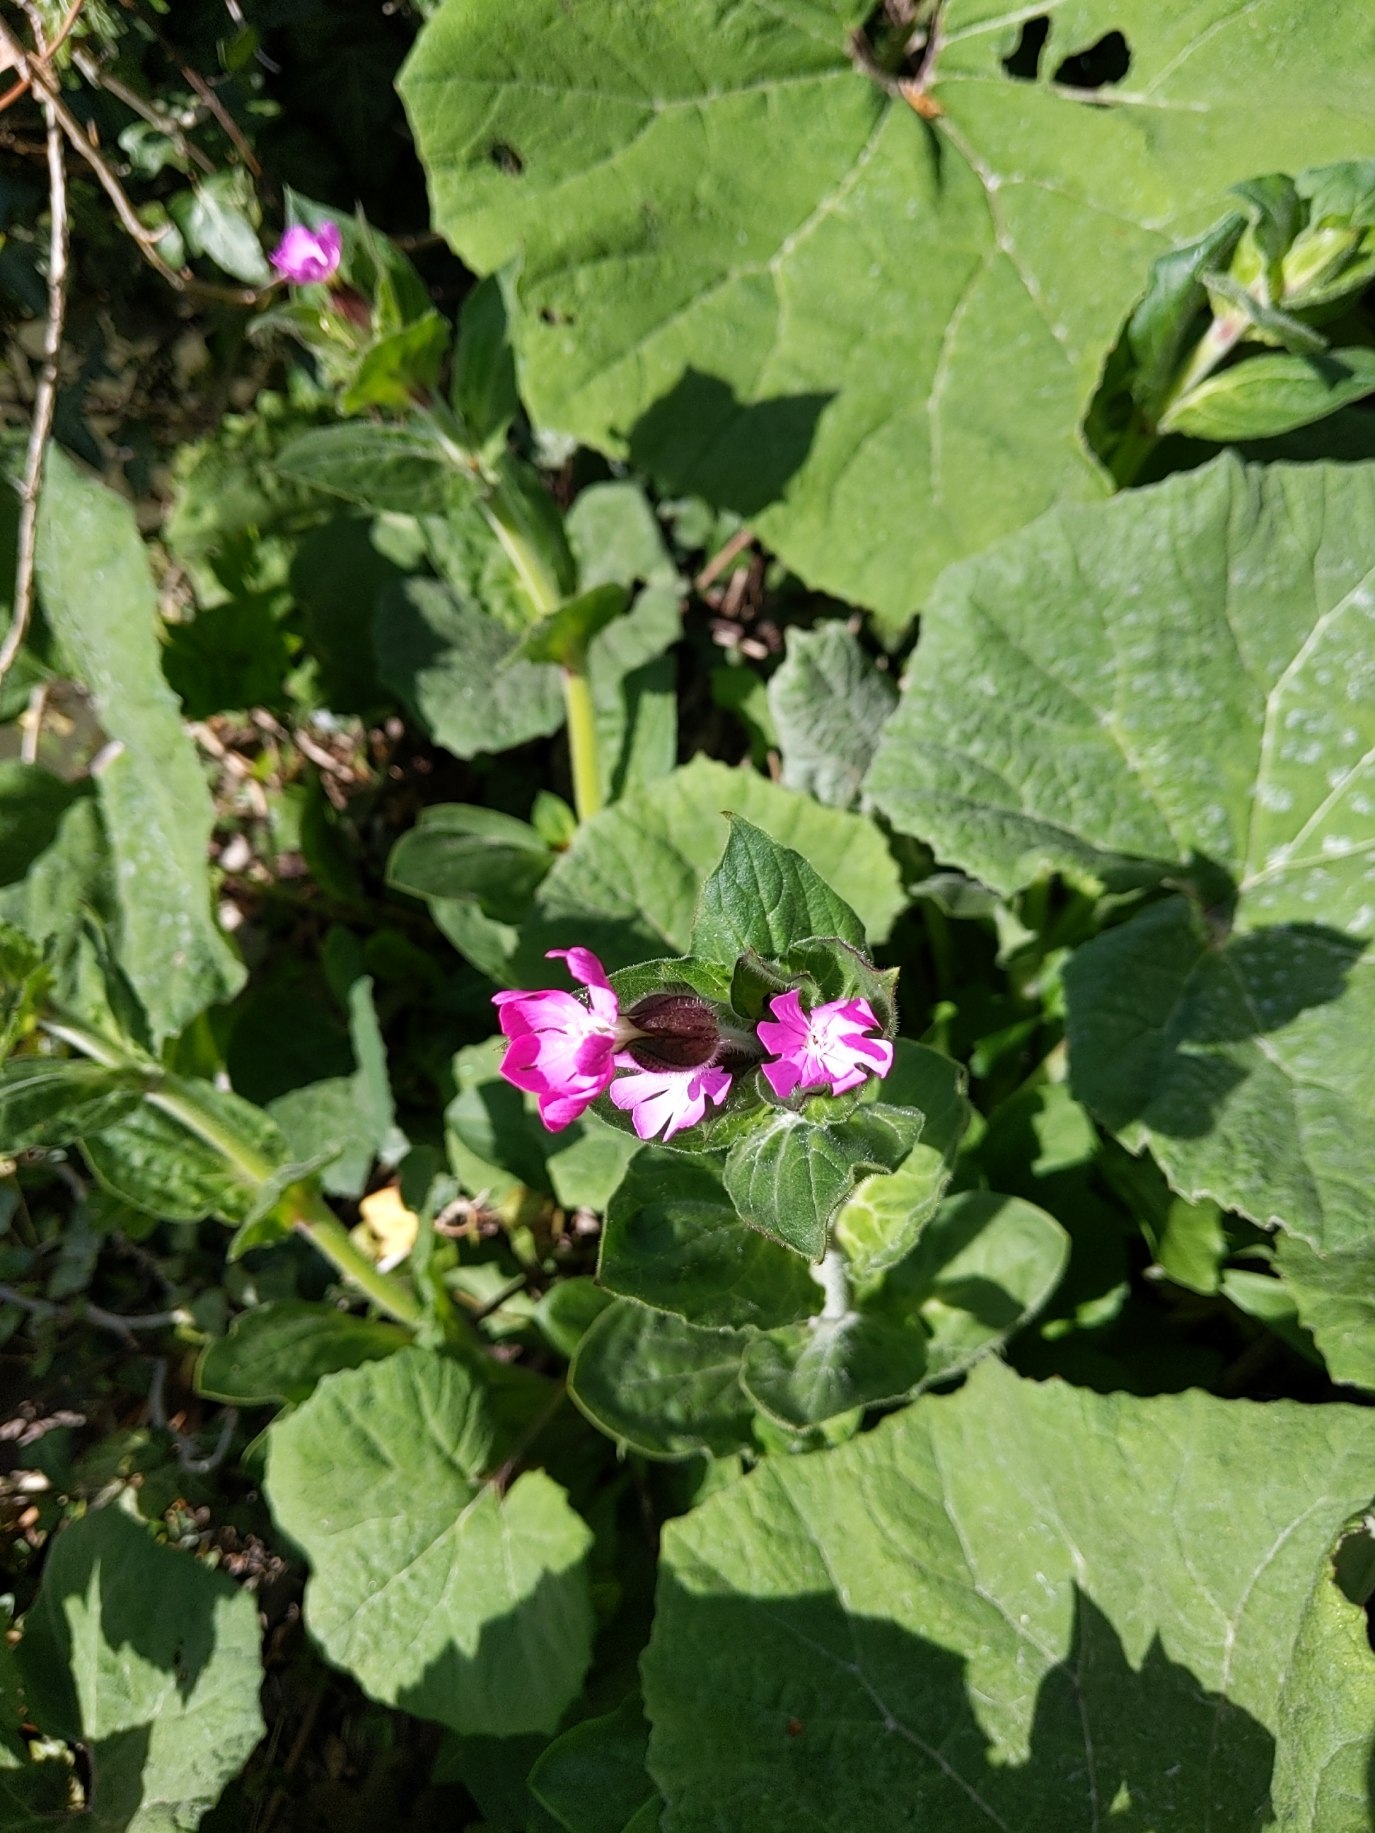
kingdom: Plantae
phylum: Tracheophyta
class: Magnoliopsida
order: Caryophyllales
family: Caryophyllaceae
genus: Silene
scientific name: Silene dioica
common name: Dagpragtstjerne
